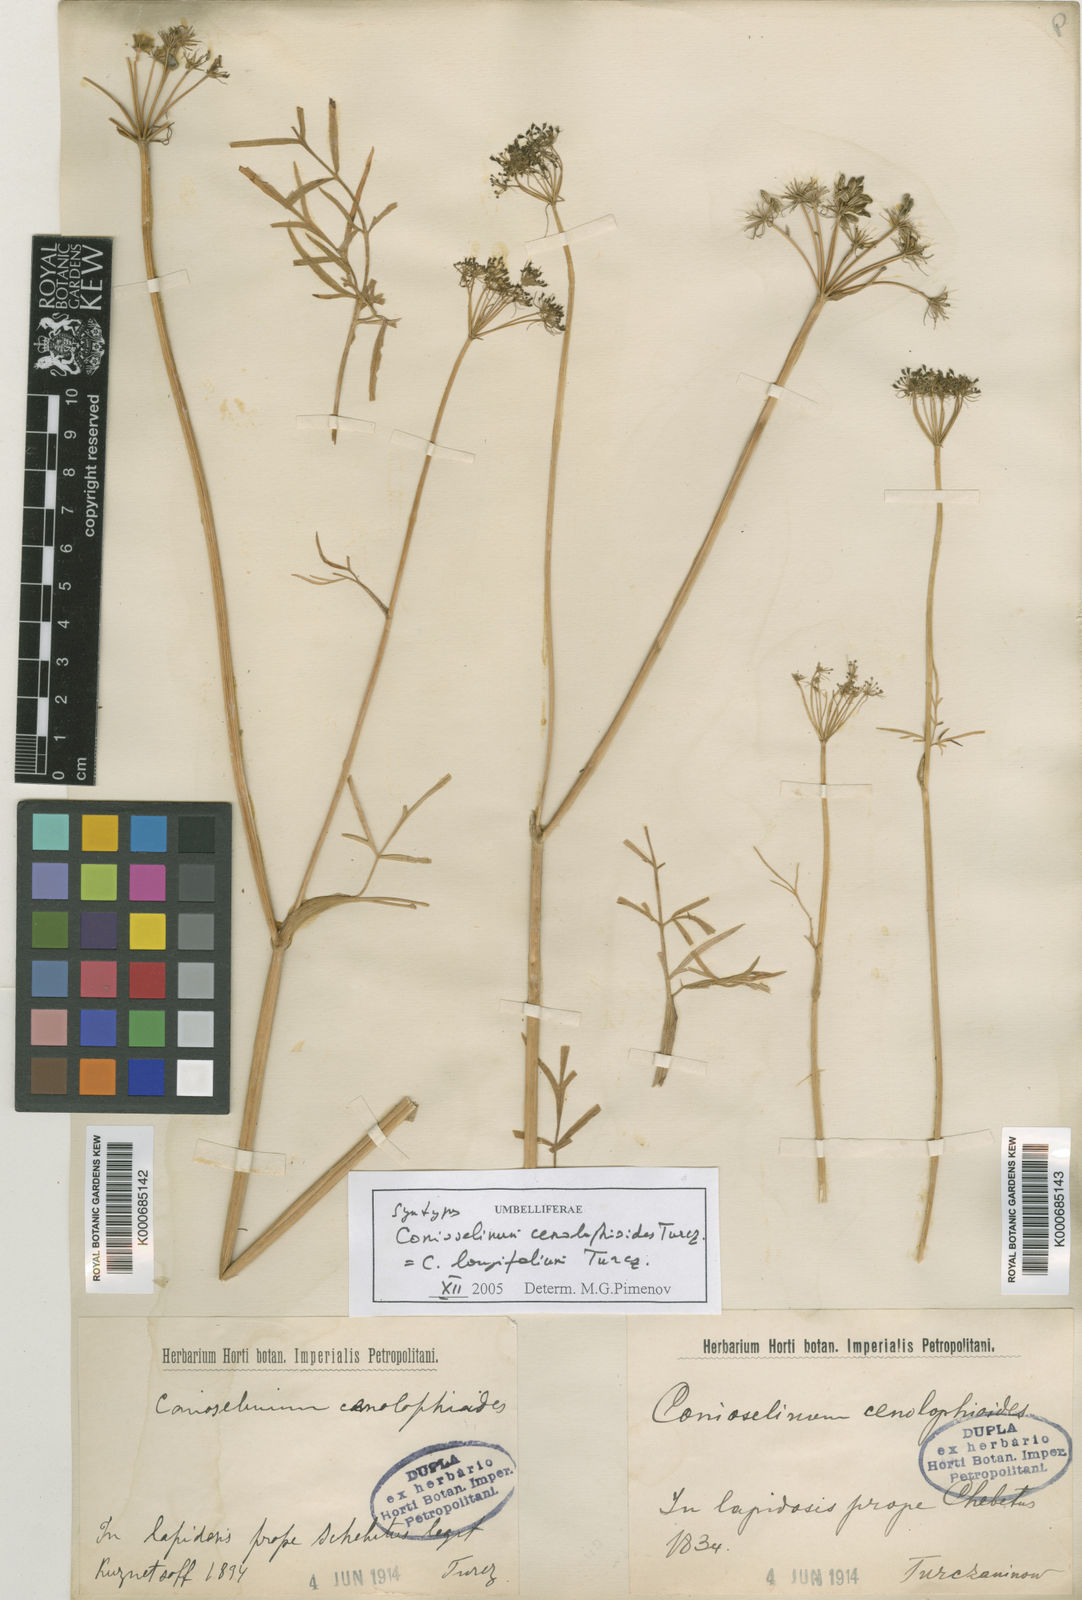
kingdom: Plantae
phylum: Tracheophyta
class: Magnoliopsida
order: Apiales
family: Apiaceae
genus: Conioselinum
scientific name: Conioselinum longifolium
